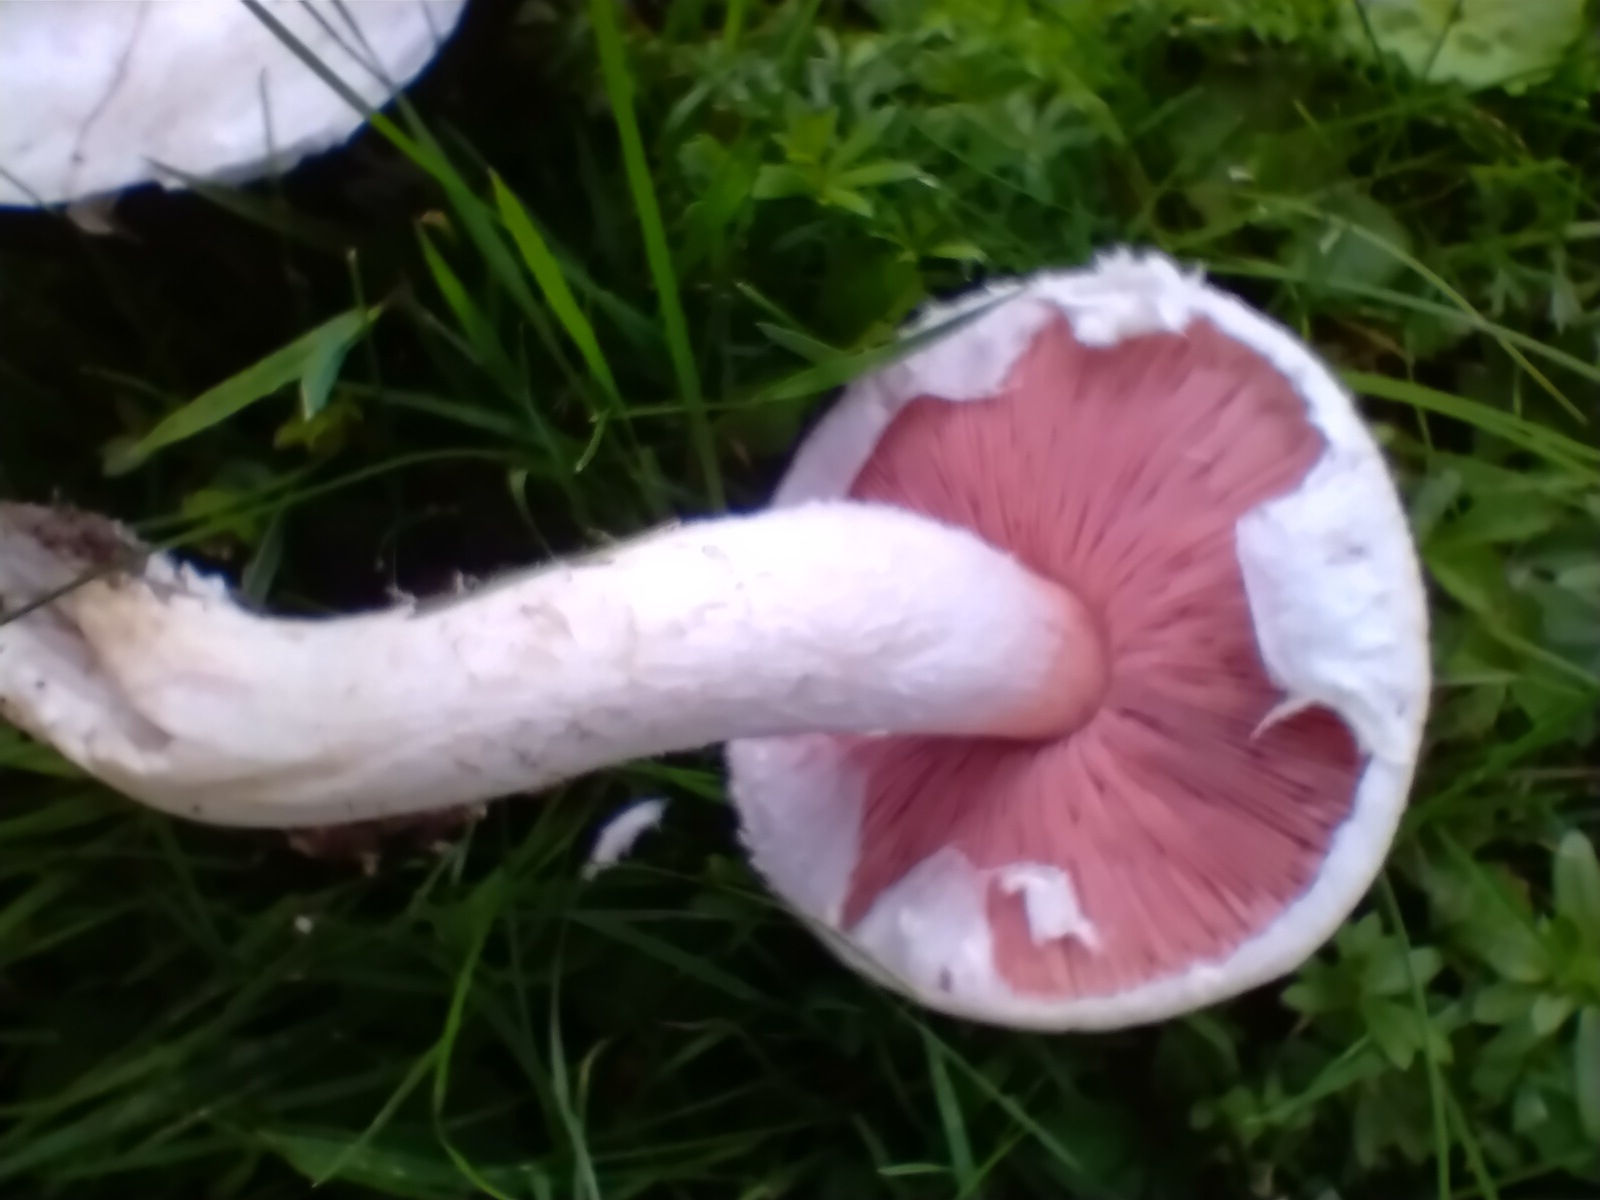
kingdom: Fungi
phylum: Basidiomycota
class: Agaricomycetes
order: Agaricales
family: Agaricaceae
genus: Agaricus
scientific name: Agaricus campestris
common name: mark-champignon
